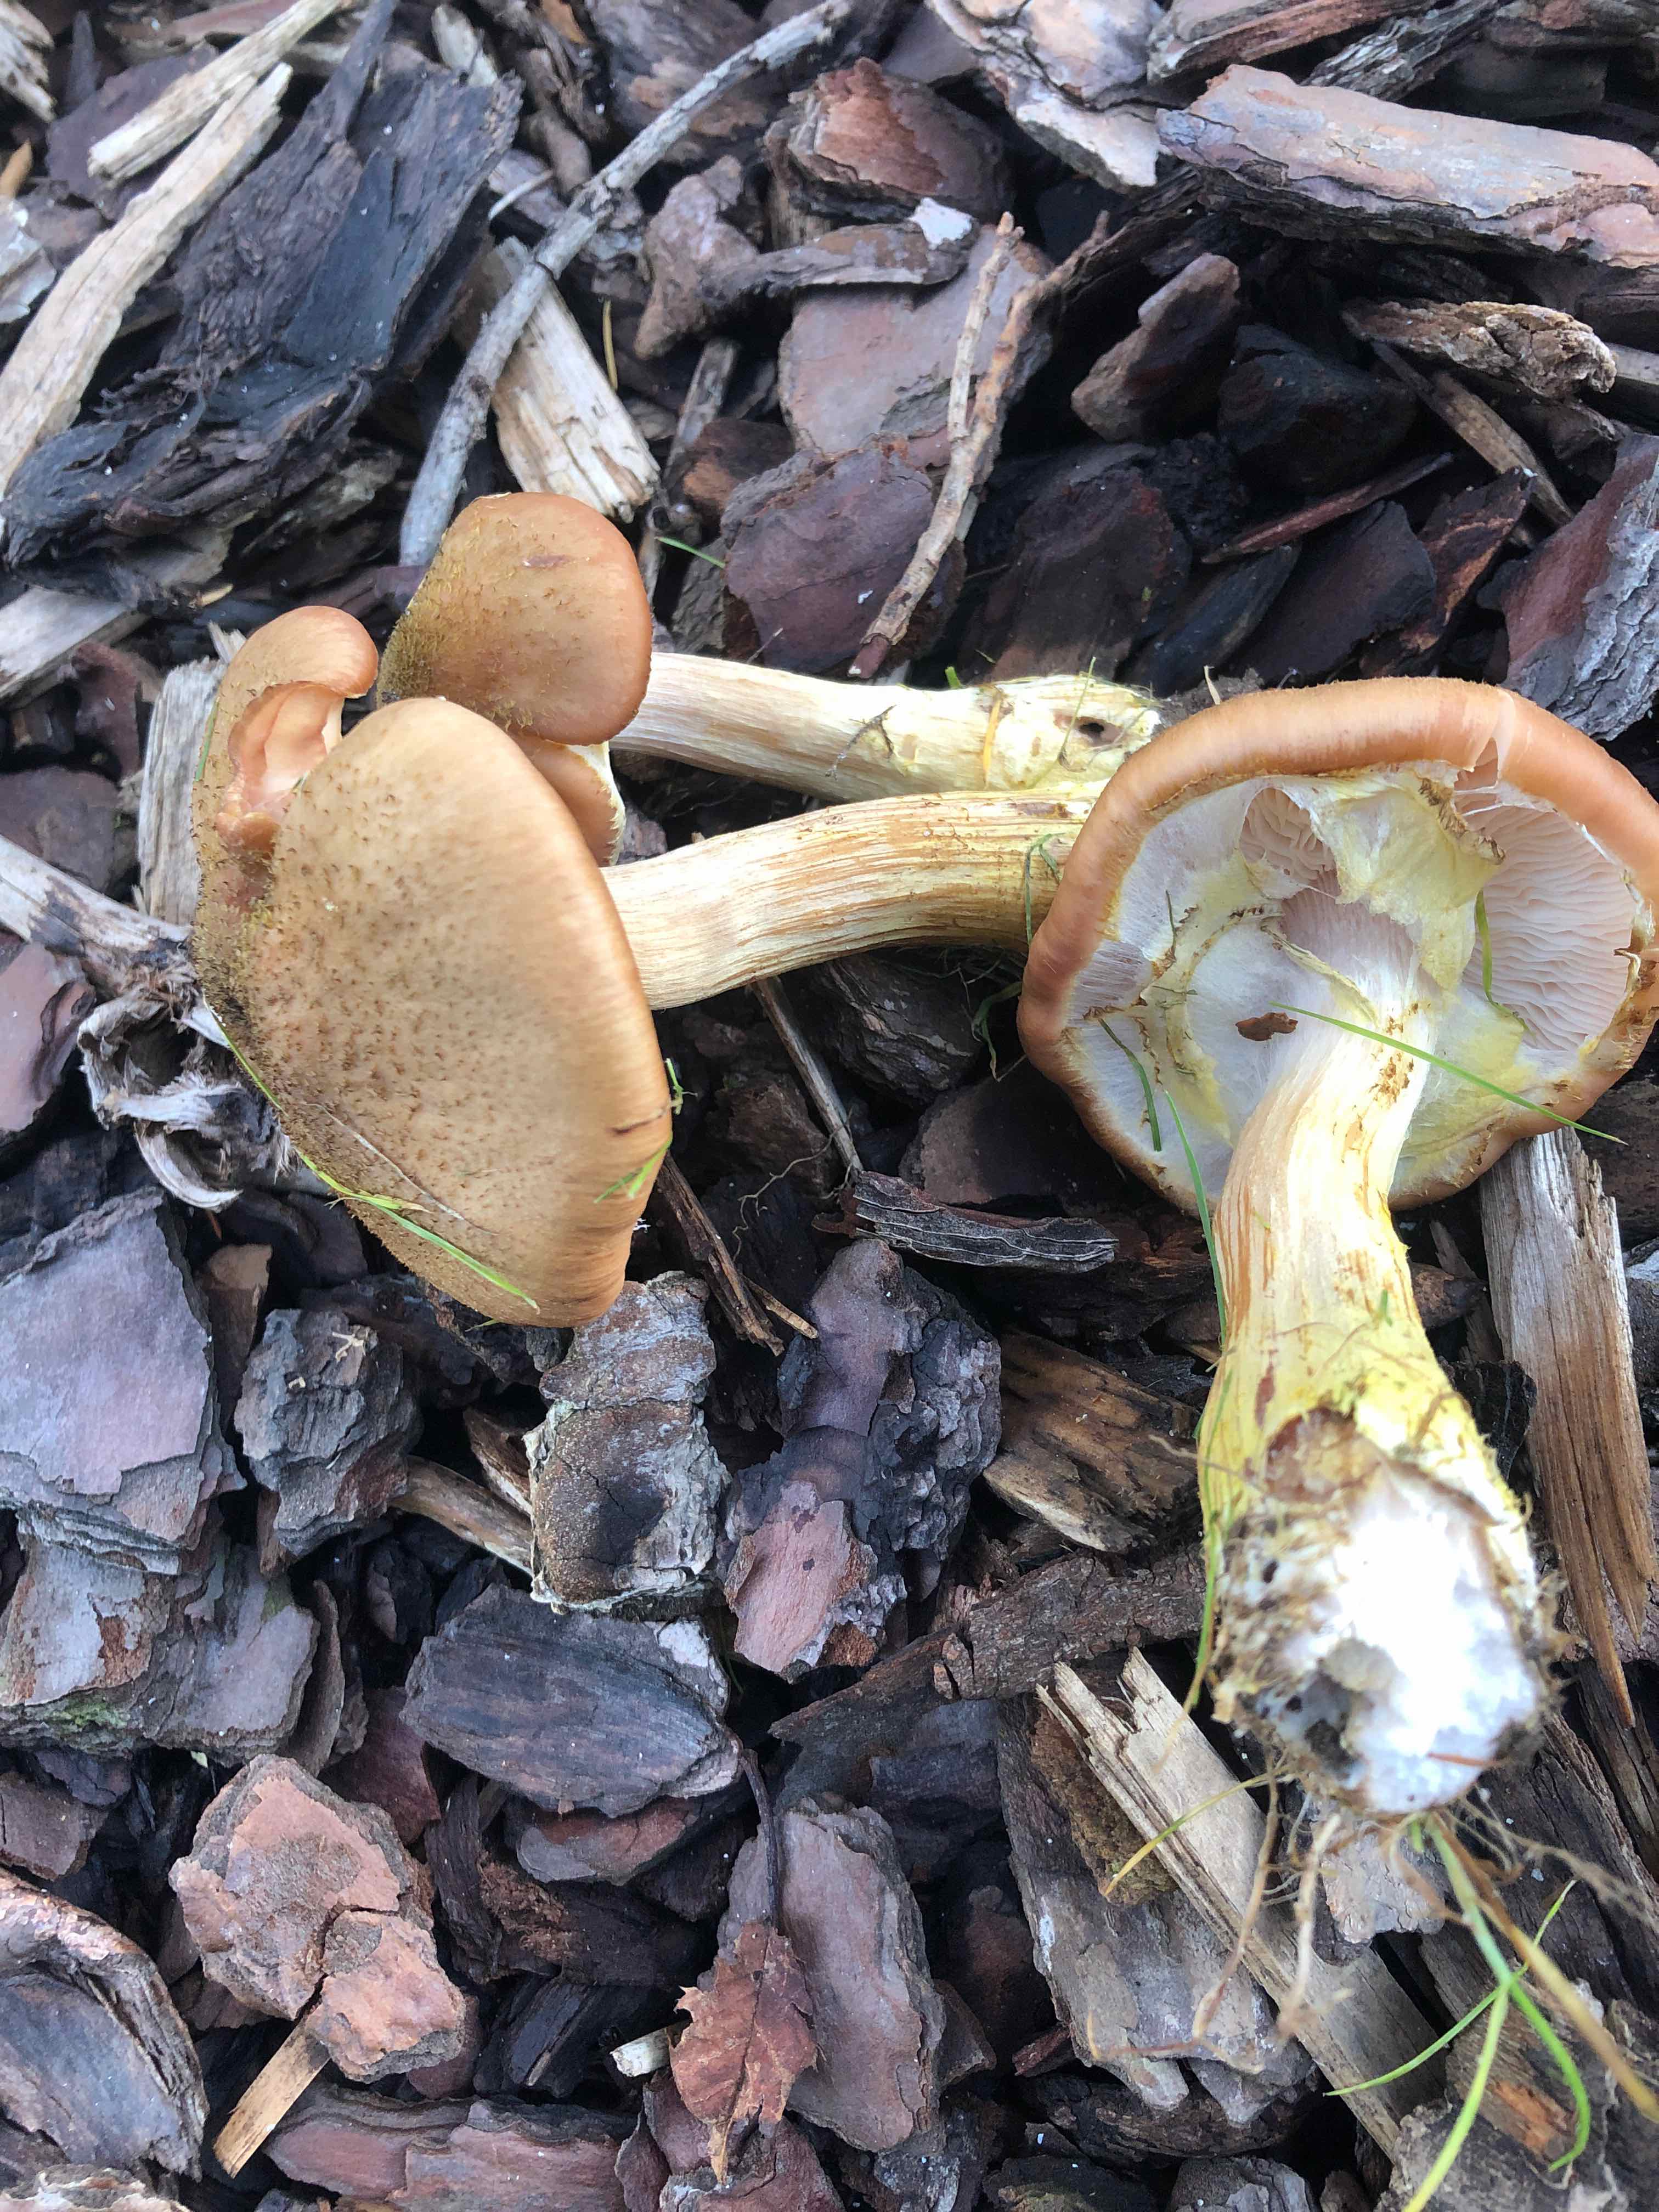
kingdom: Fungi
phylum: Basidiomycota
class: Agaricomycetes
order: Agaricales
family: Physalacriaceae
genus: Armillaria
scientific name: Armillaria lutea
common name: køllestokket honningsvamp
